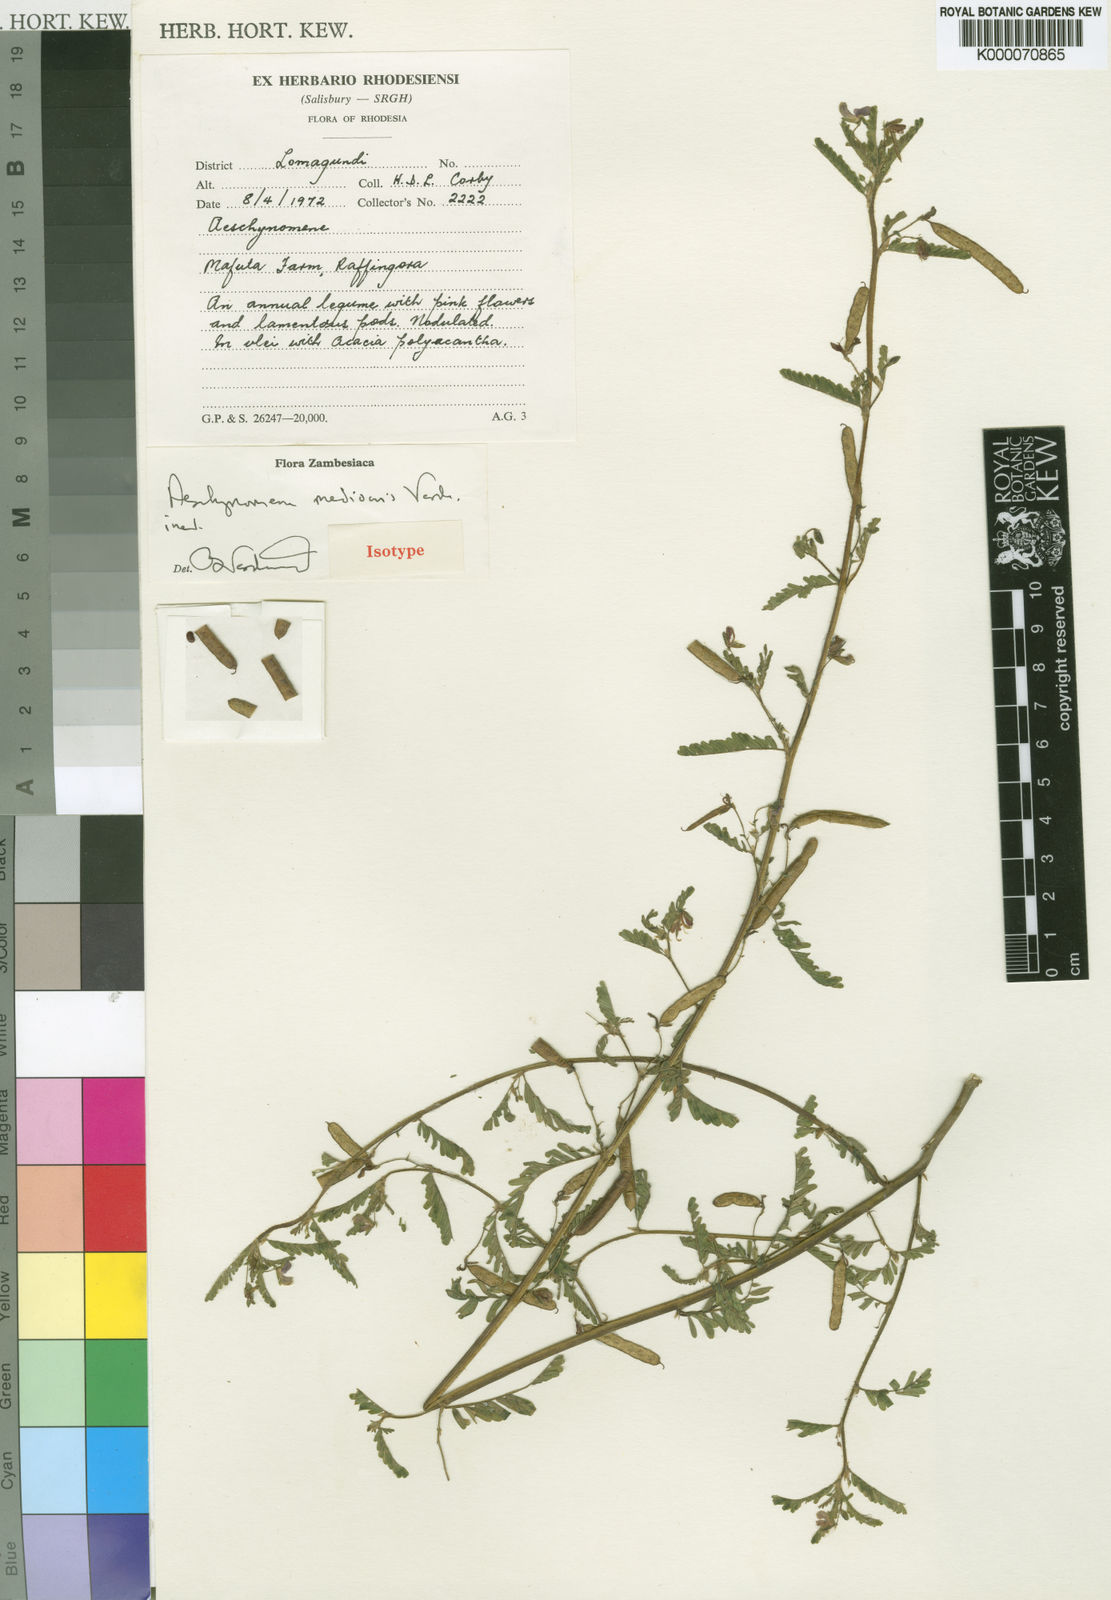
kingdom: Plantae
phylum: Tracheophyta
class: Magnoliopsida
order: Fabales
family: Fabaceae
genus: Aeschynomene
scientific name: Aeschynomene mediocris
